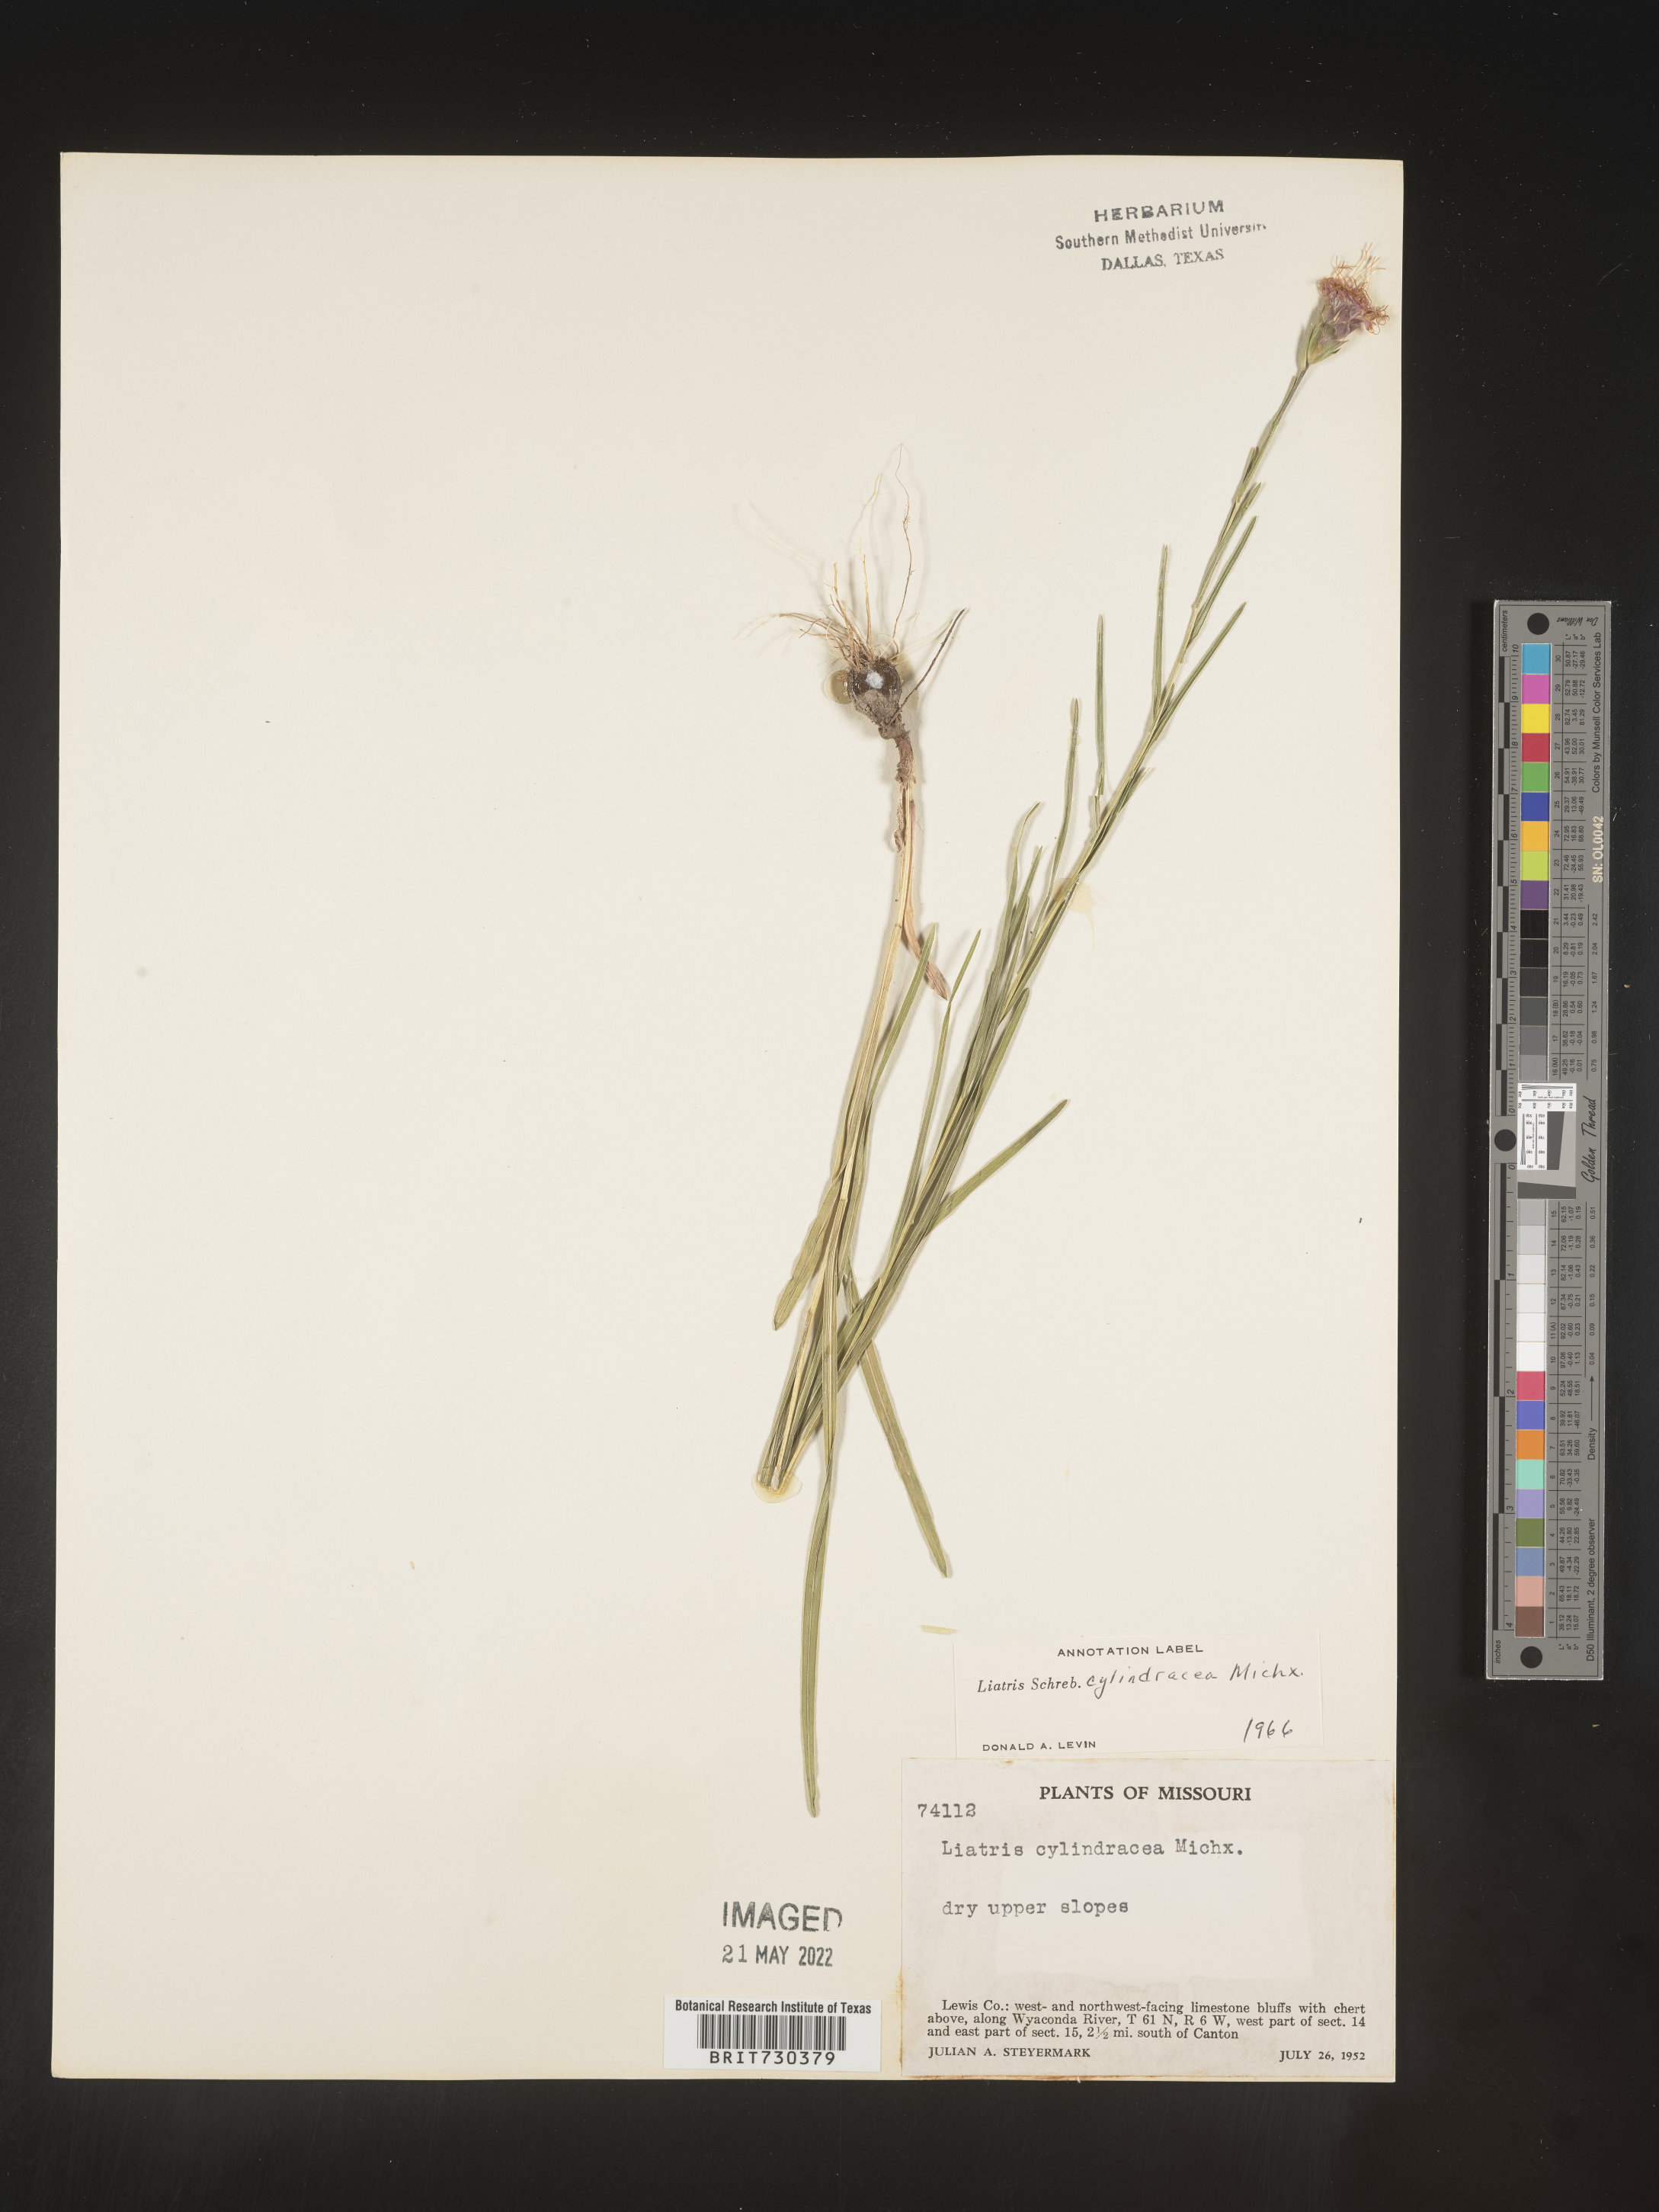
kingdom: Plantae
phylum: Tracheophyta
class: Magnoliopsida
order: Asterales
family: Asteraceae
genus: Liatris
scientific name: Liatris cylindracea
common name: Few-head blazingstar
